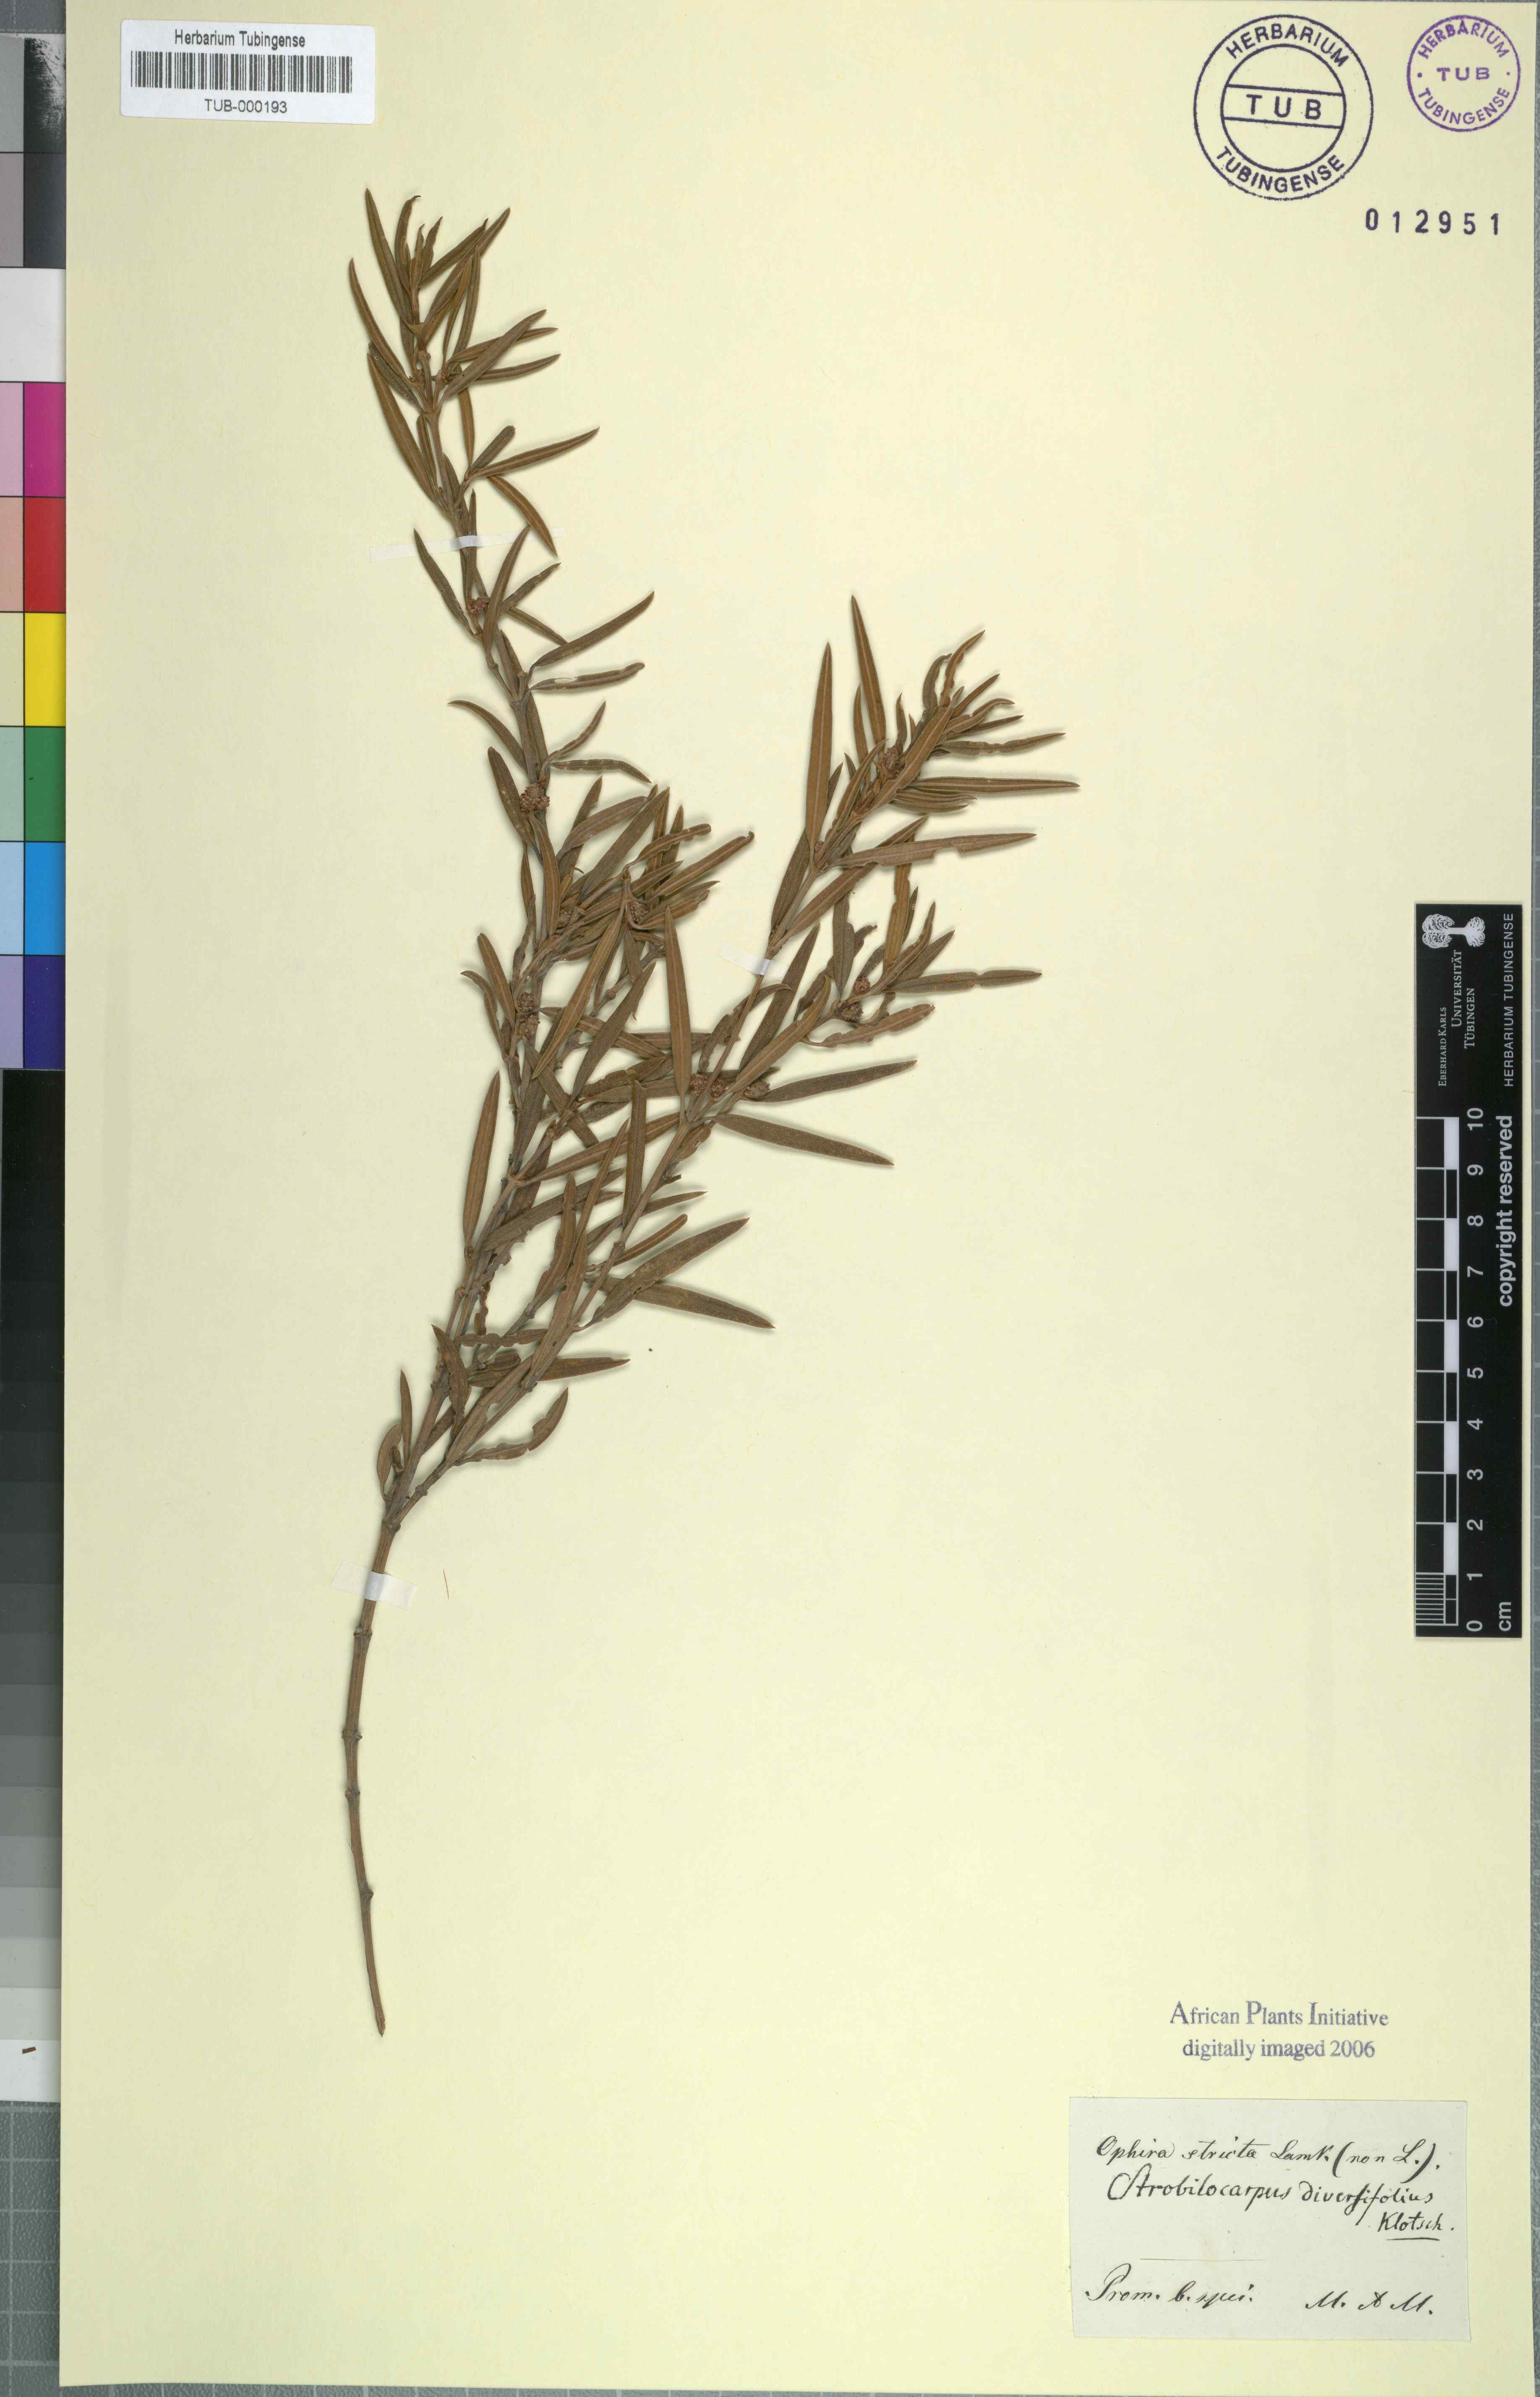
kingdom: Plantae
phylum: Tracheophyta
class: Magnoliopsida
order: Cornales
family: Grubbiaceae
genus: Grubbia
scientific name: Grubbia rosmarinifolia
